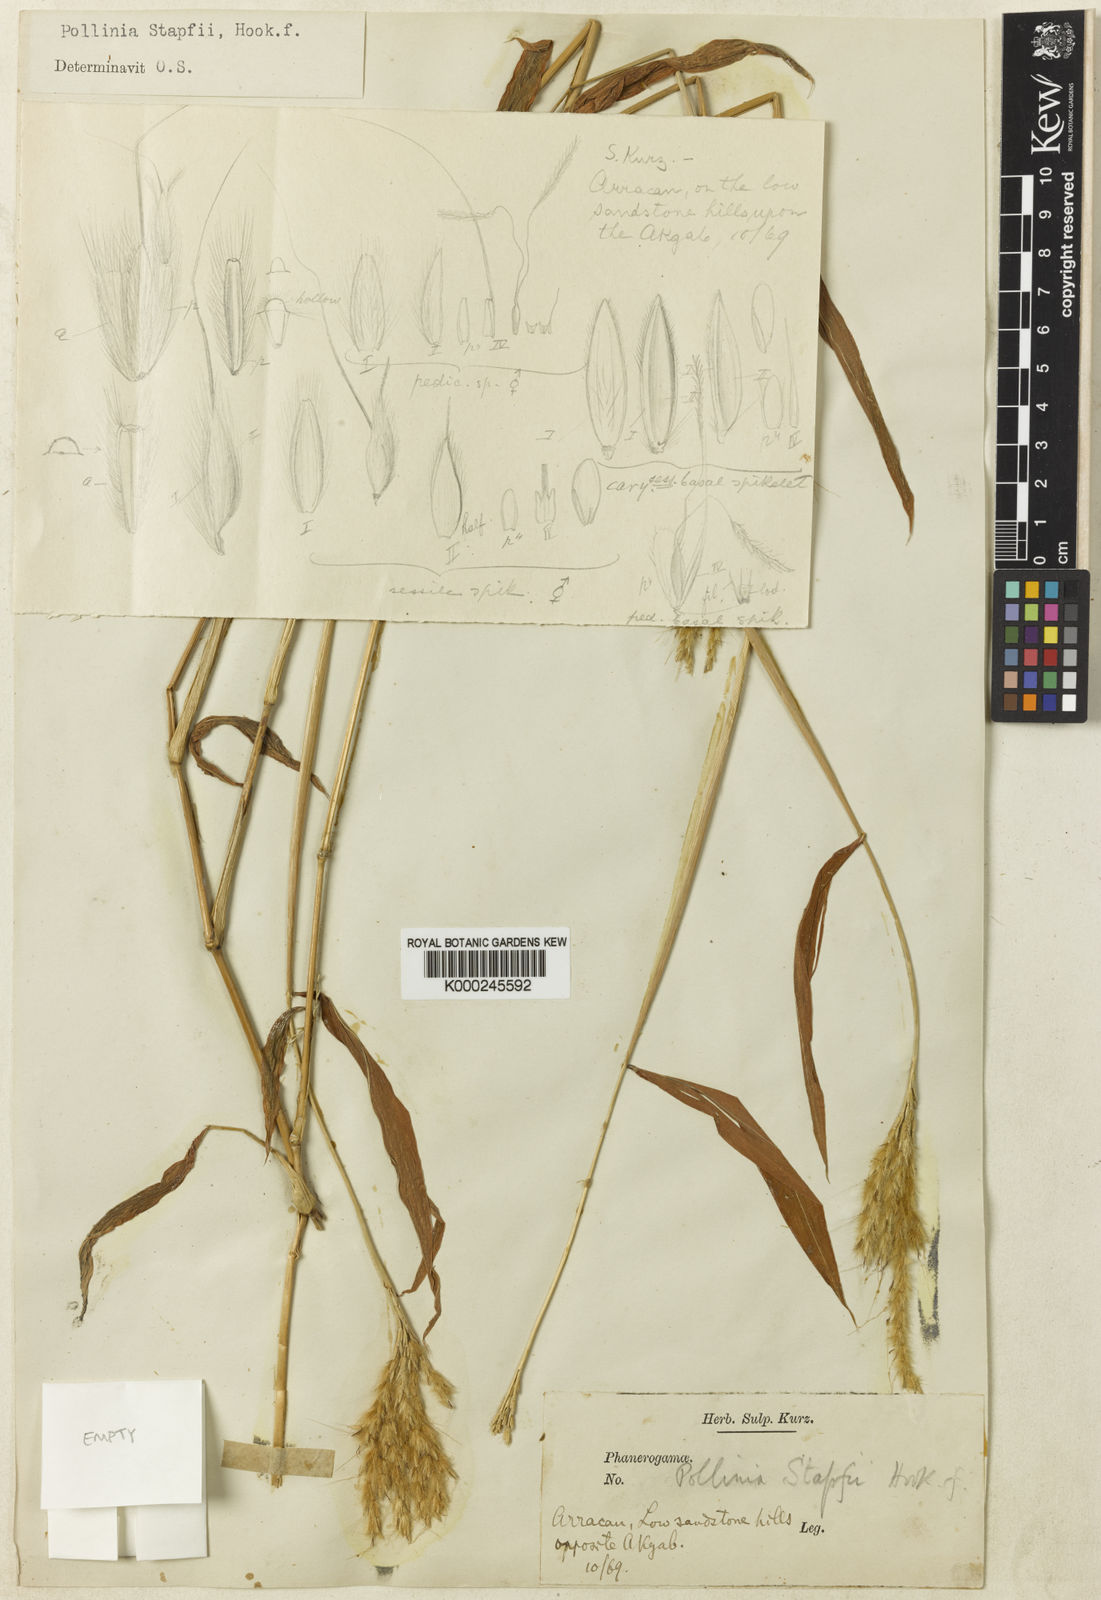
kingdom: Plantae
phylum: Tracheophyta
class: Liliopsida
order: Poales
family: Poaceae
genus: Microstegium
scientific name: Microstegium stapfii
